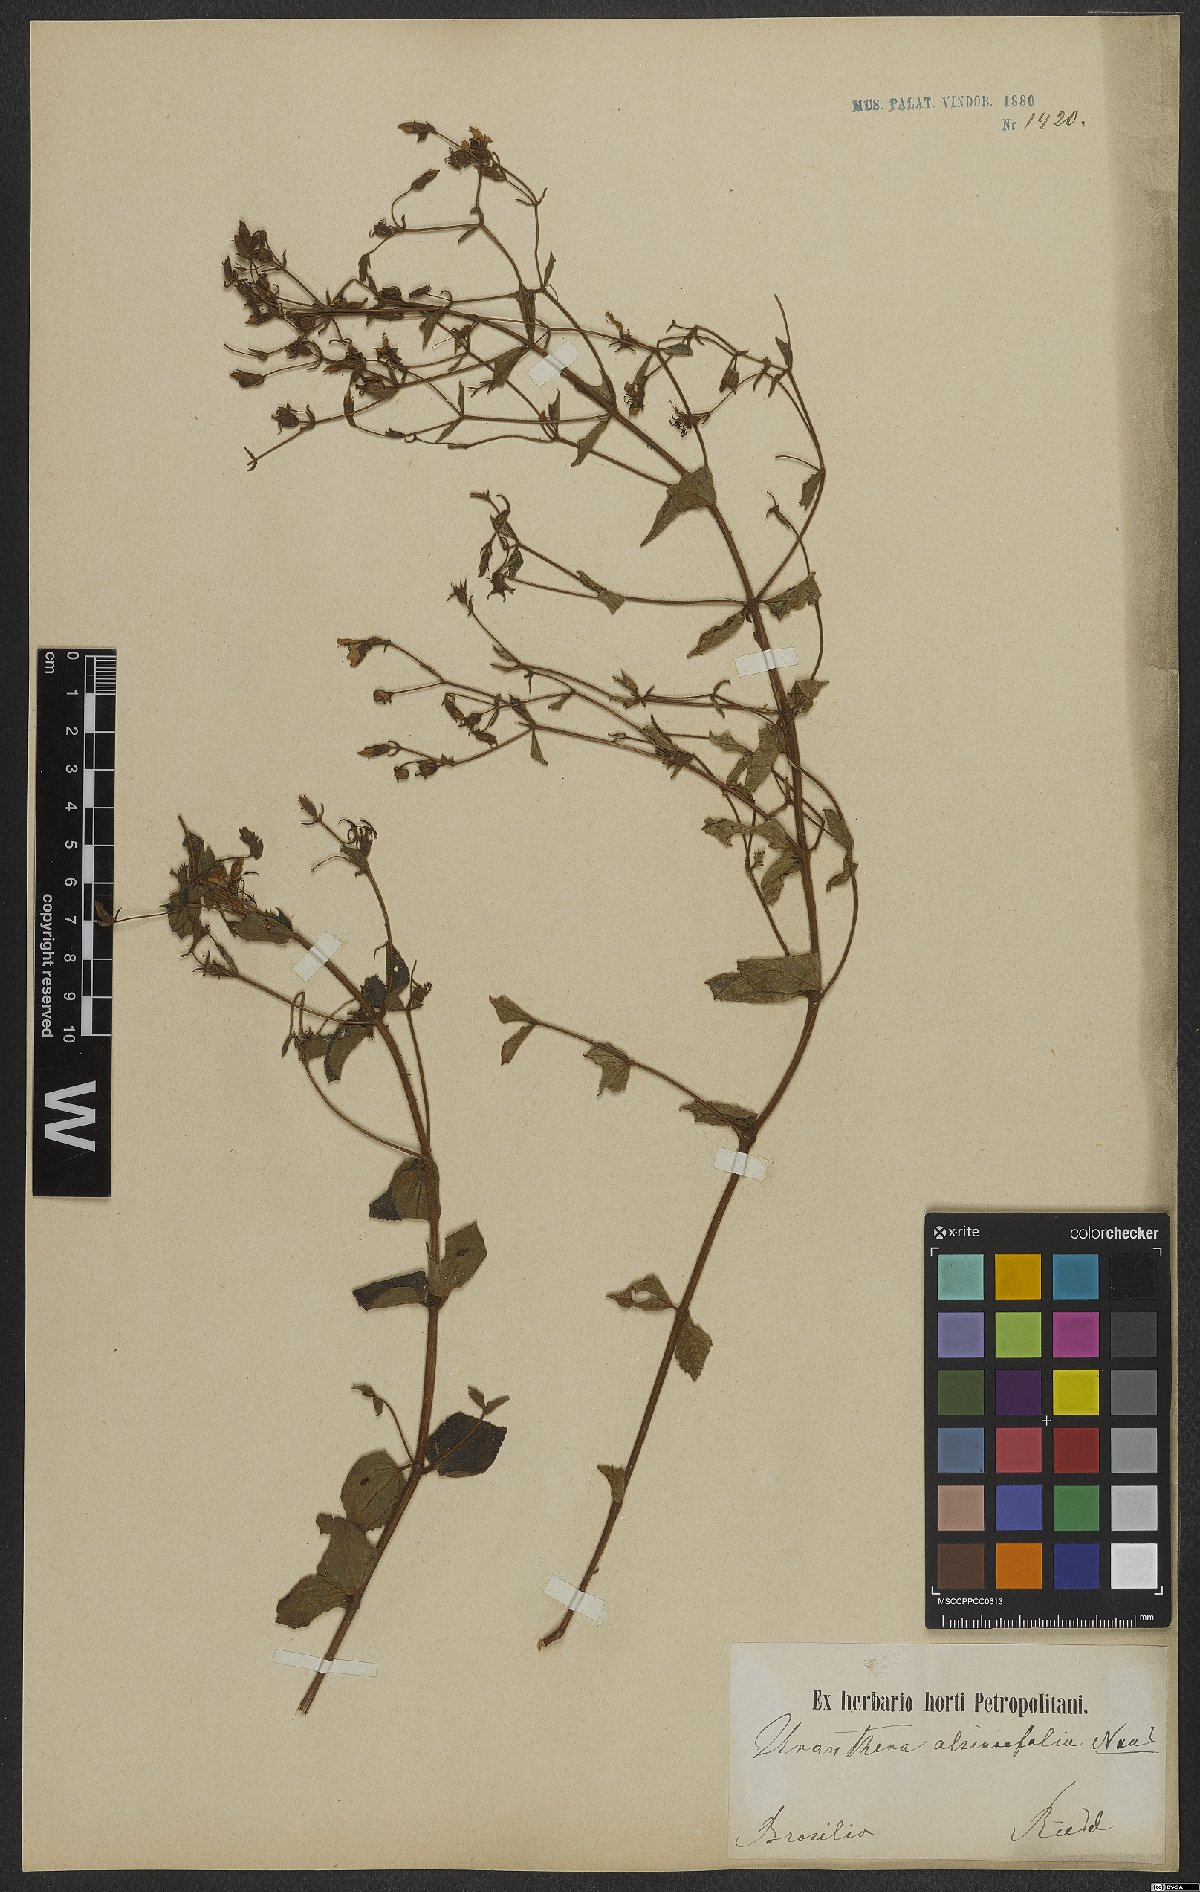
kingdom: Plantae
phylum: Tracheophyta
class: Magnoliopsida
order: Myrtales
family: Melastomataceae
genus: Acisanthera
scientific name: Acisanthera alsinefolia
